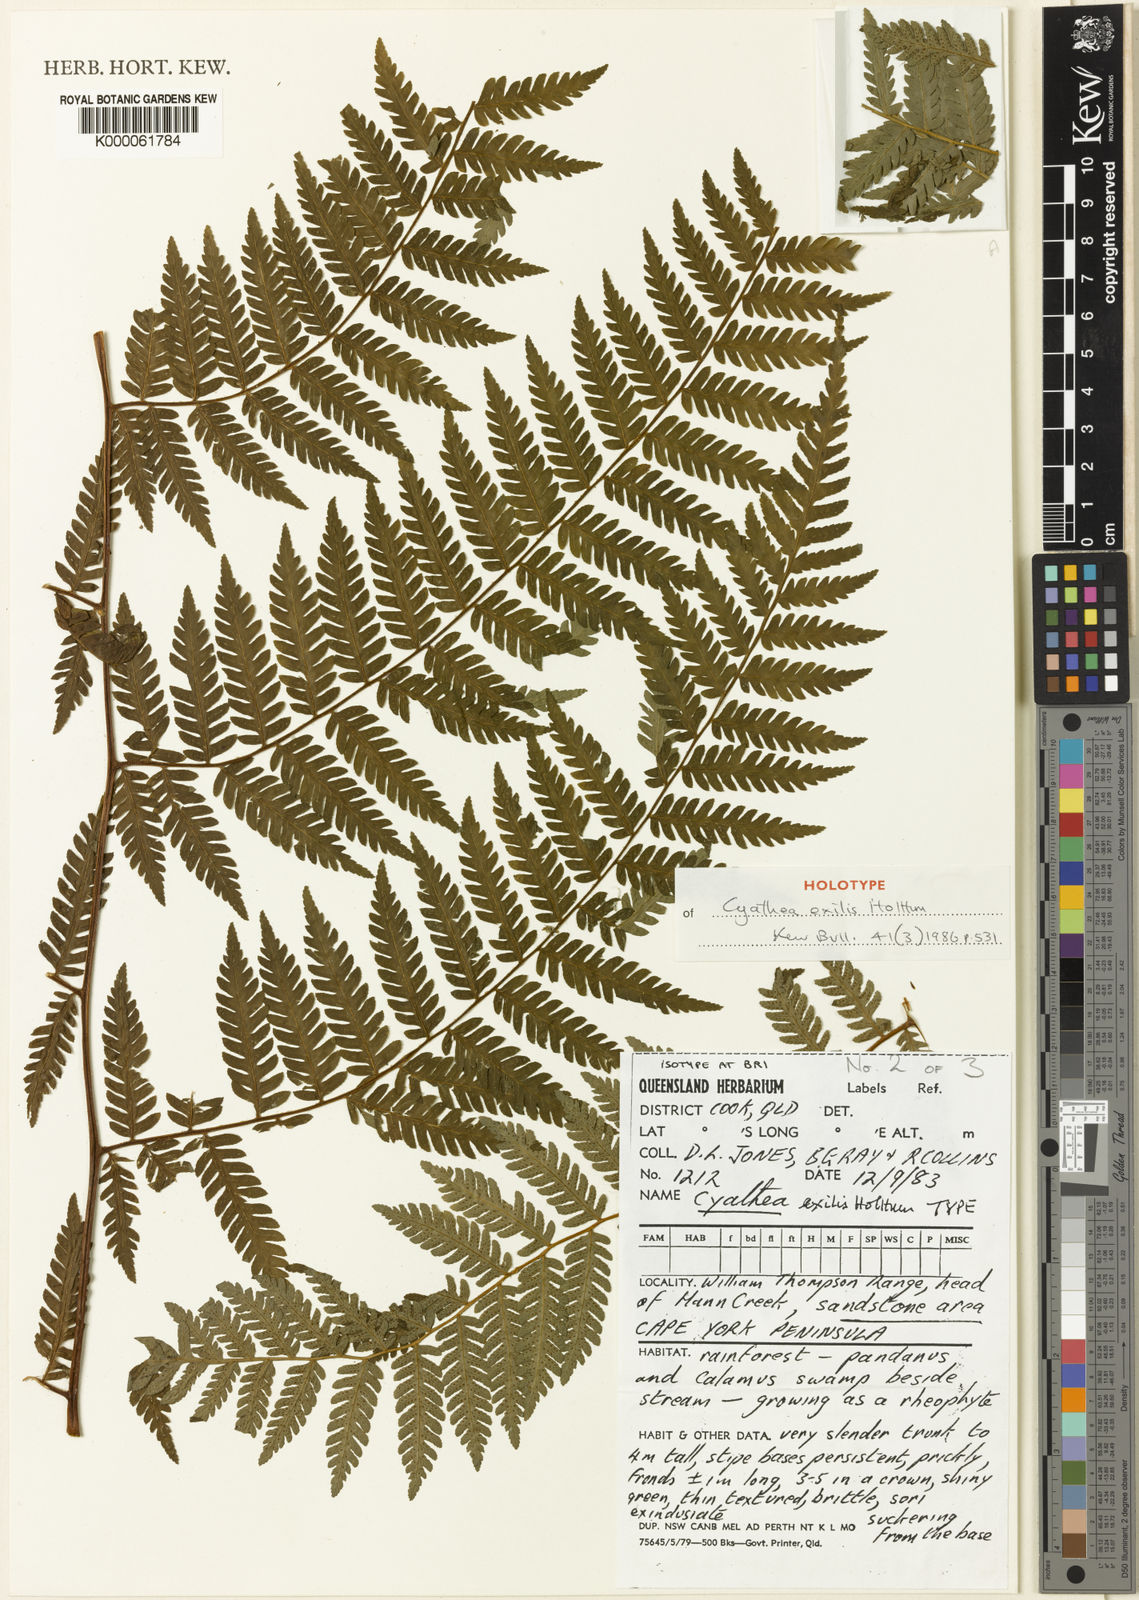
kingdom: Plantae
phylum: Tracheophyta
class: Polypodiopsida
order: Cyatheales
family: Cyatheaceae
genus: Alsophila
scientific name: Alsophila exilis
